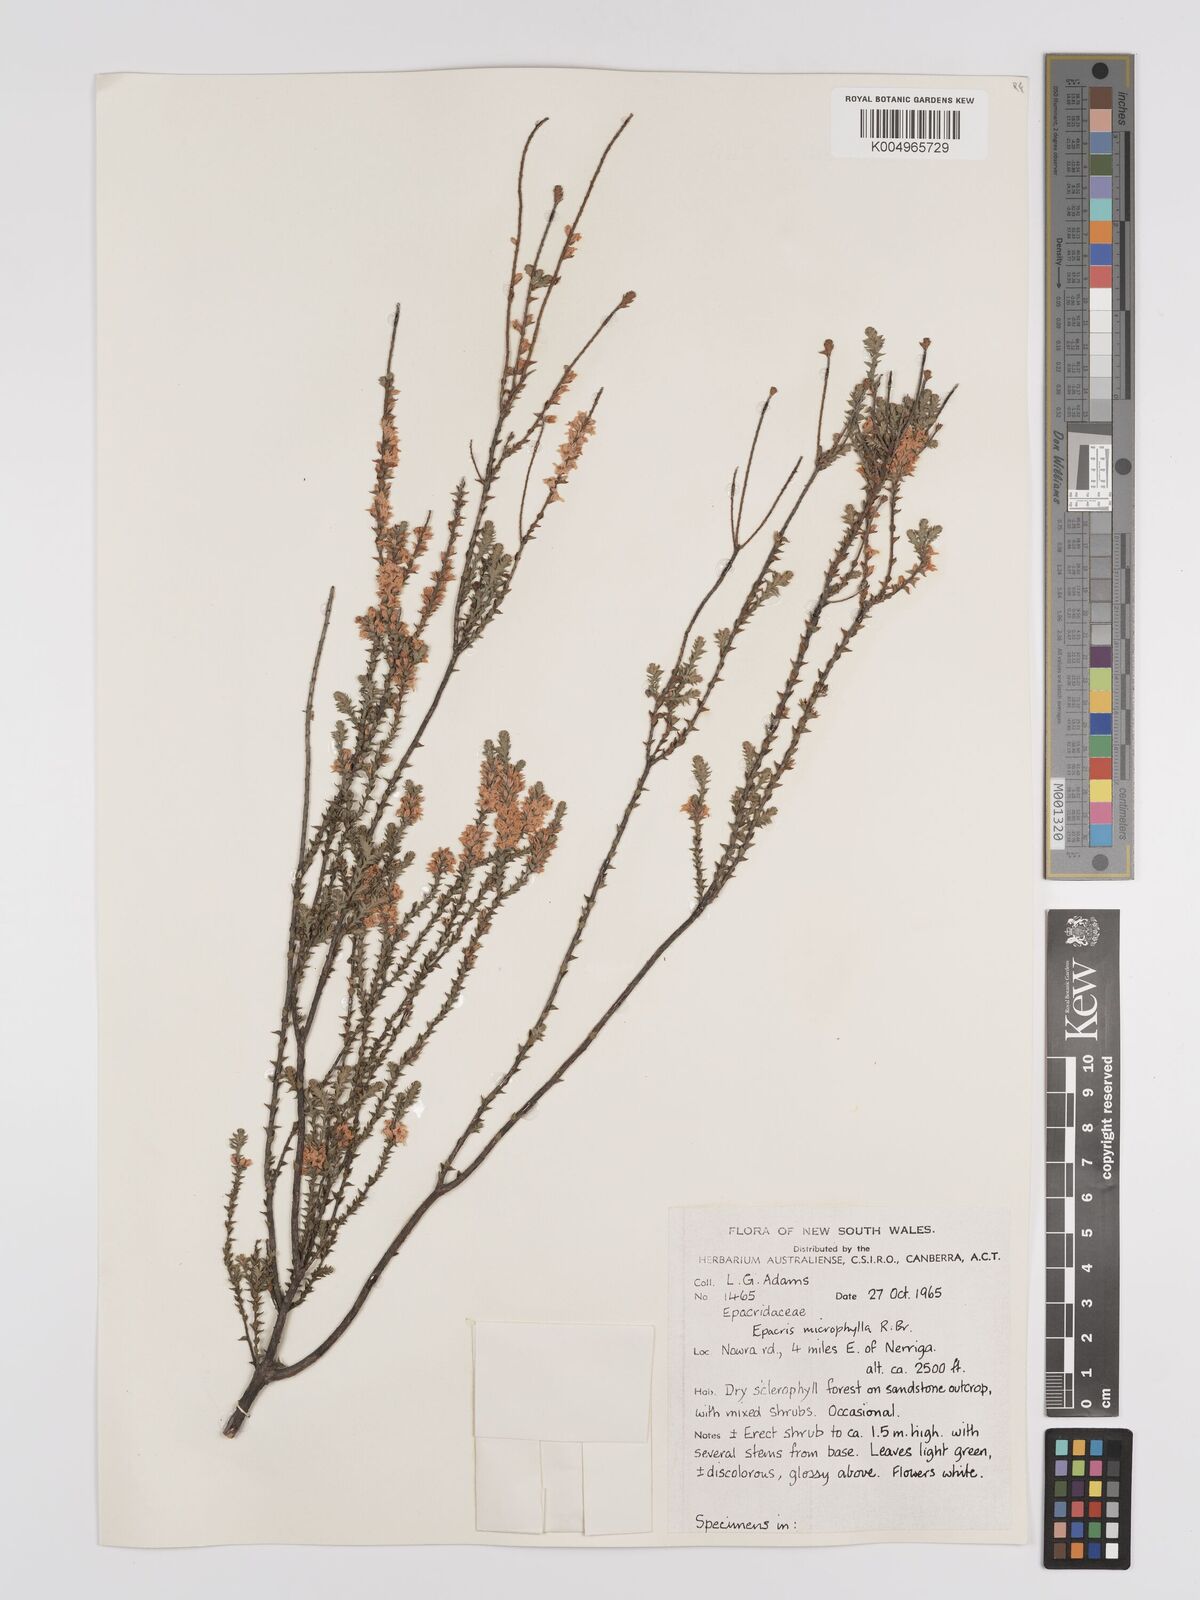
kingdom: Plantae
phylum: Tracheophyta
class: Magnoliopsida
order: Ericales
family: Ericaceae
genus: Epacris
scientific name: Epacris
